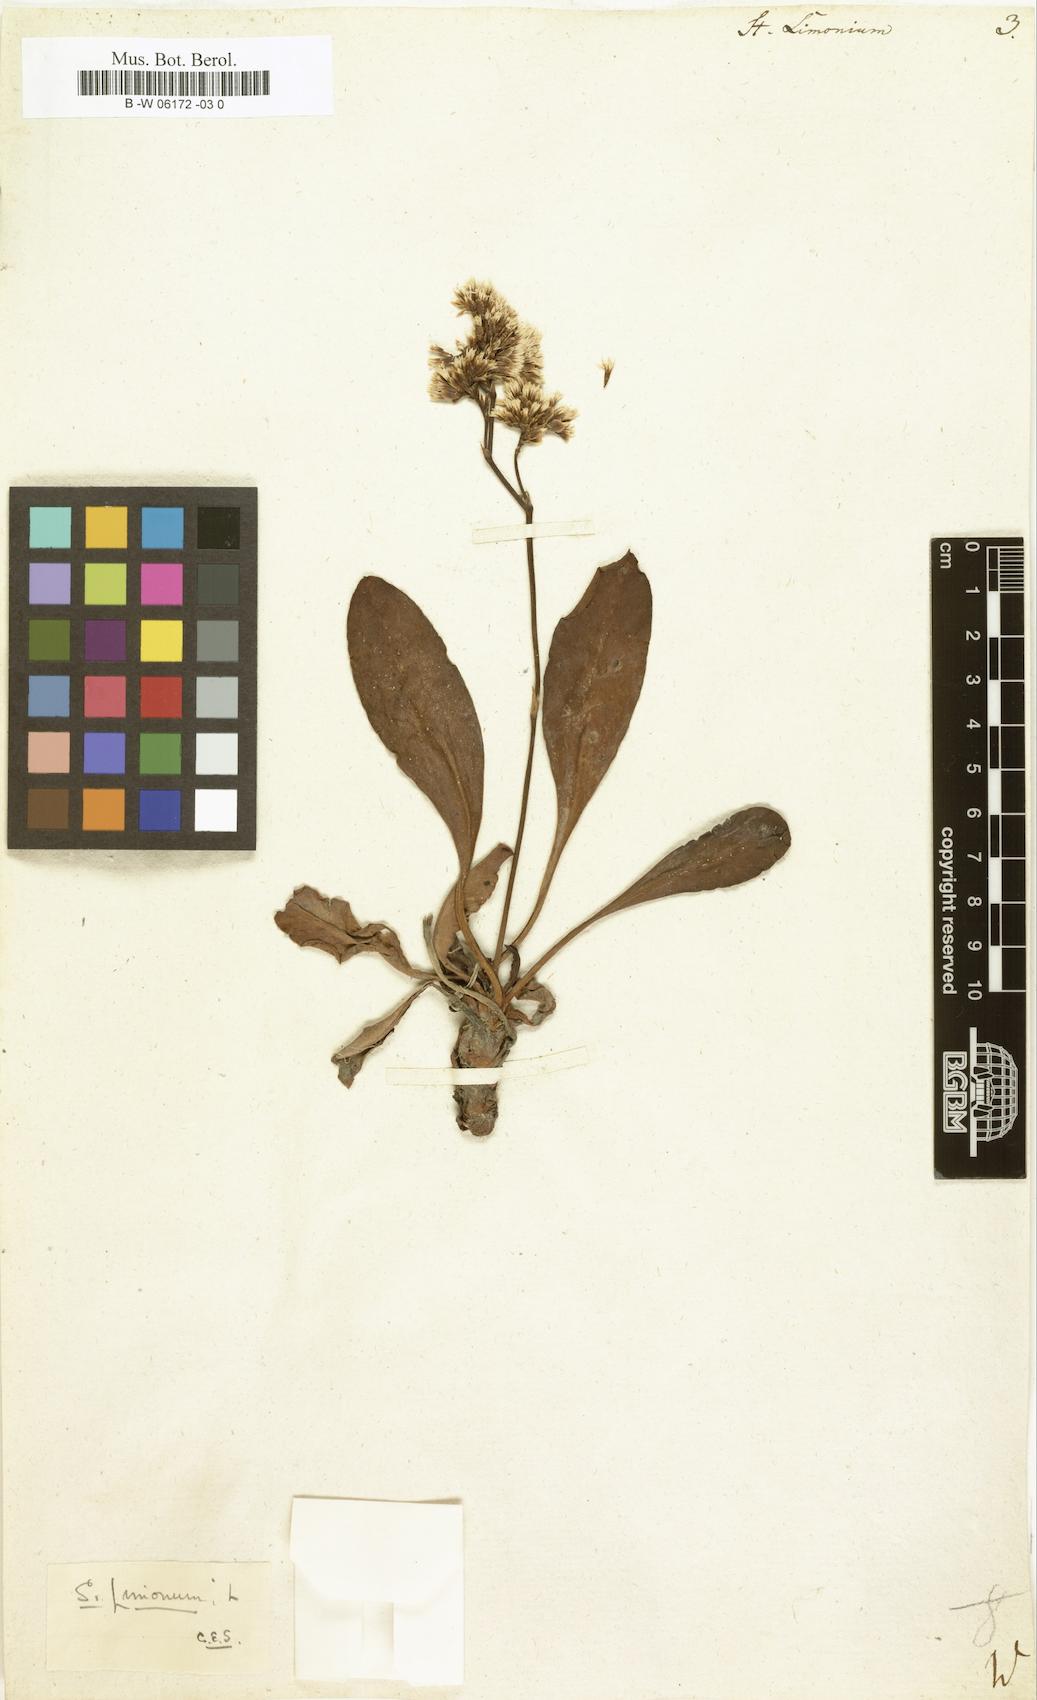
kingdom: Plantae
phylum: Tracheophyta
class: Magnoliopsida
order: Caryophyllales
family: Plumbaginaceae
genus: Limonium
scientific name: Limonium
